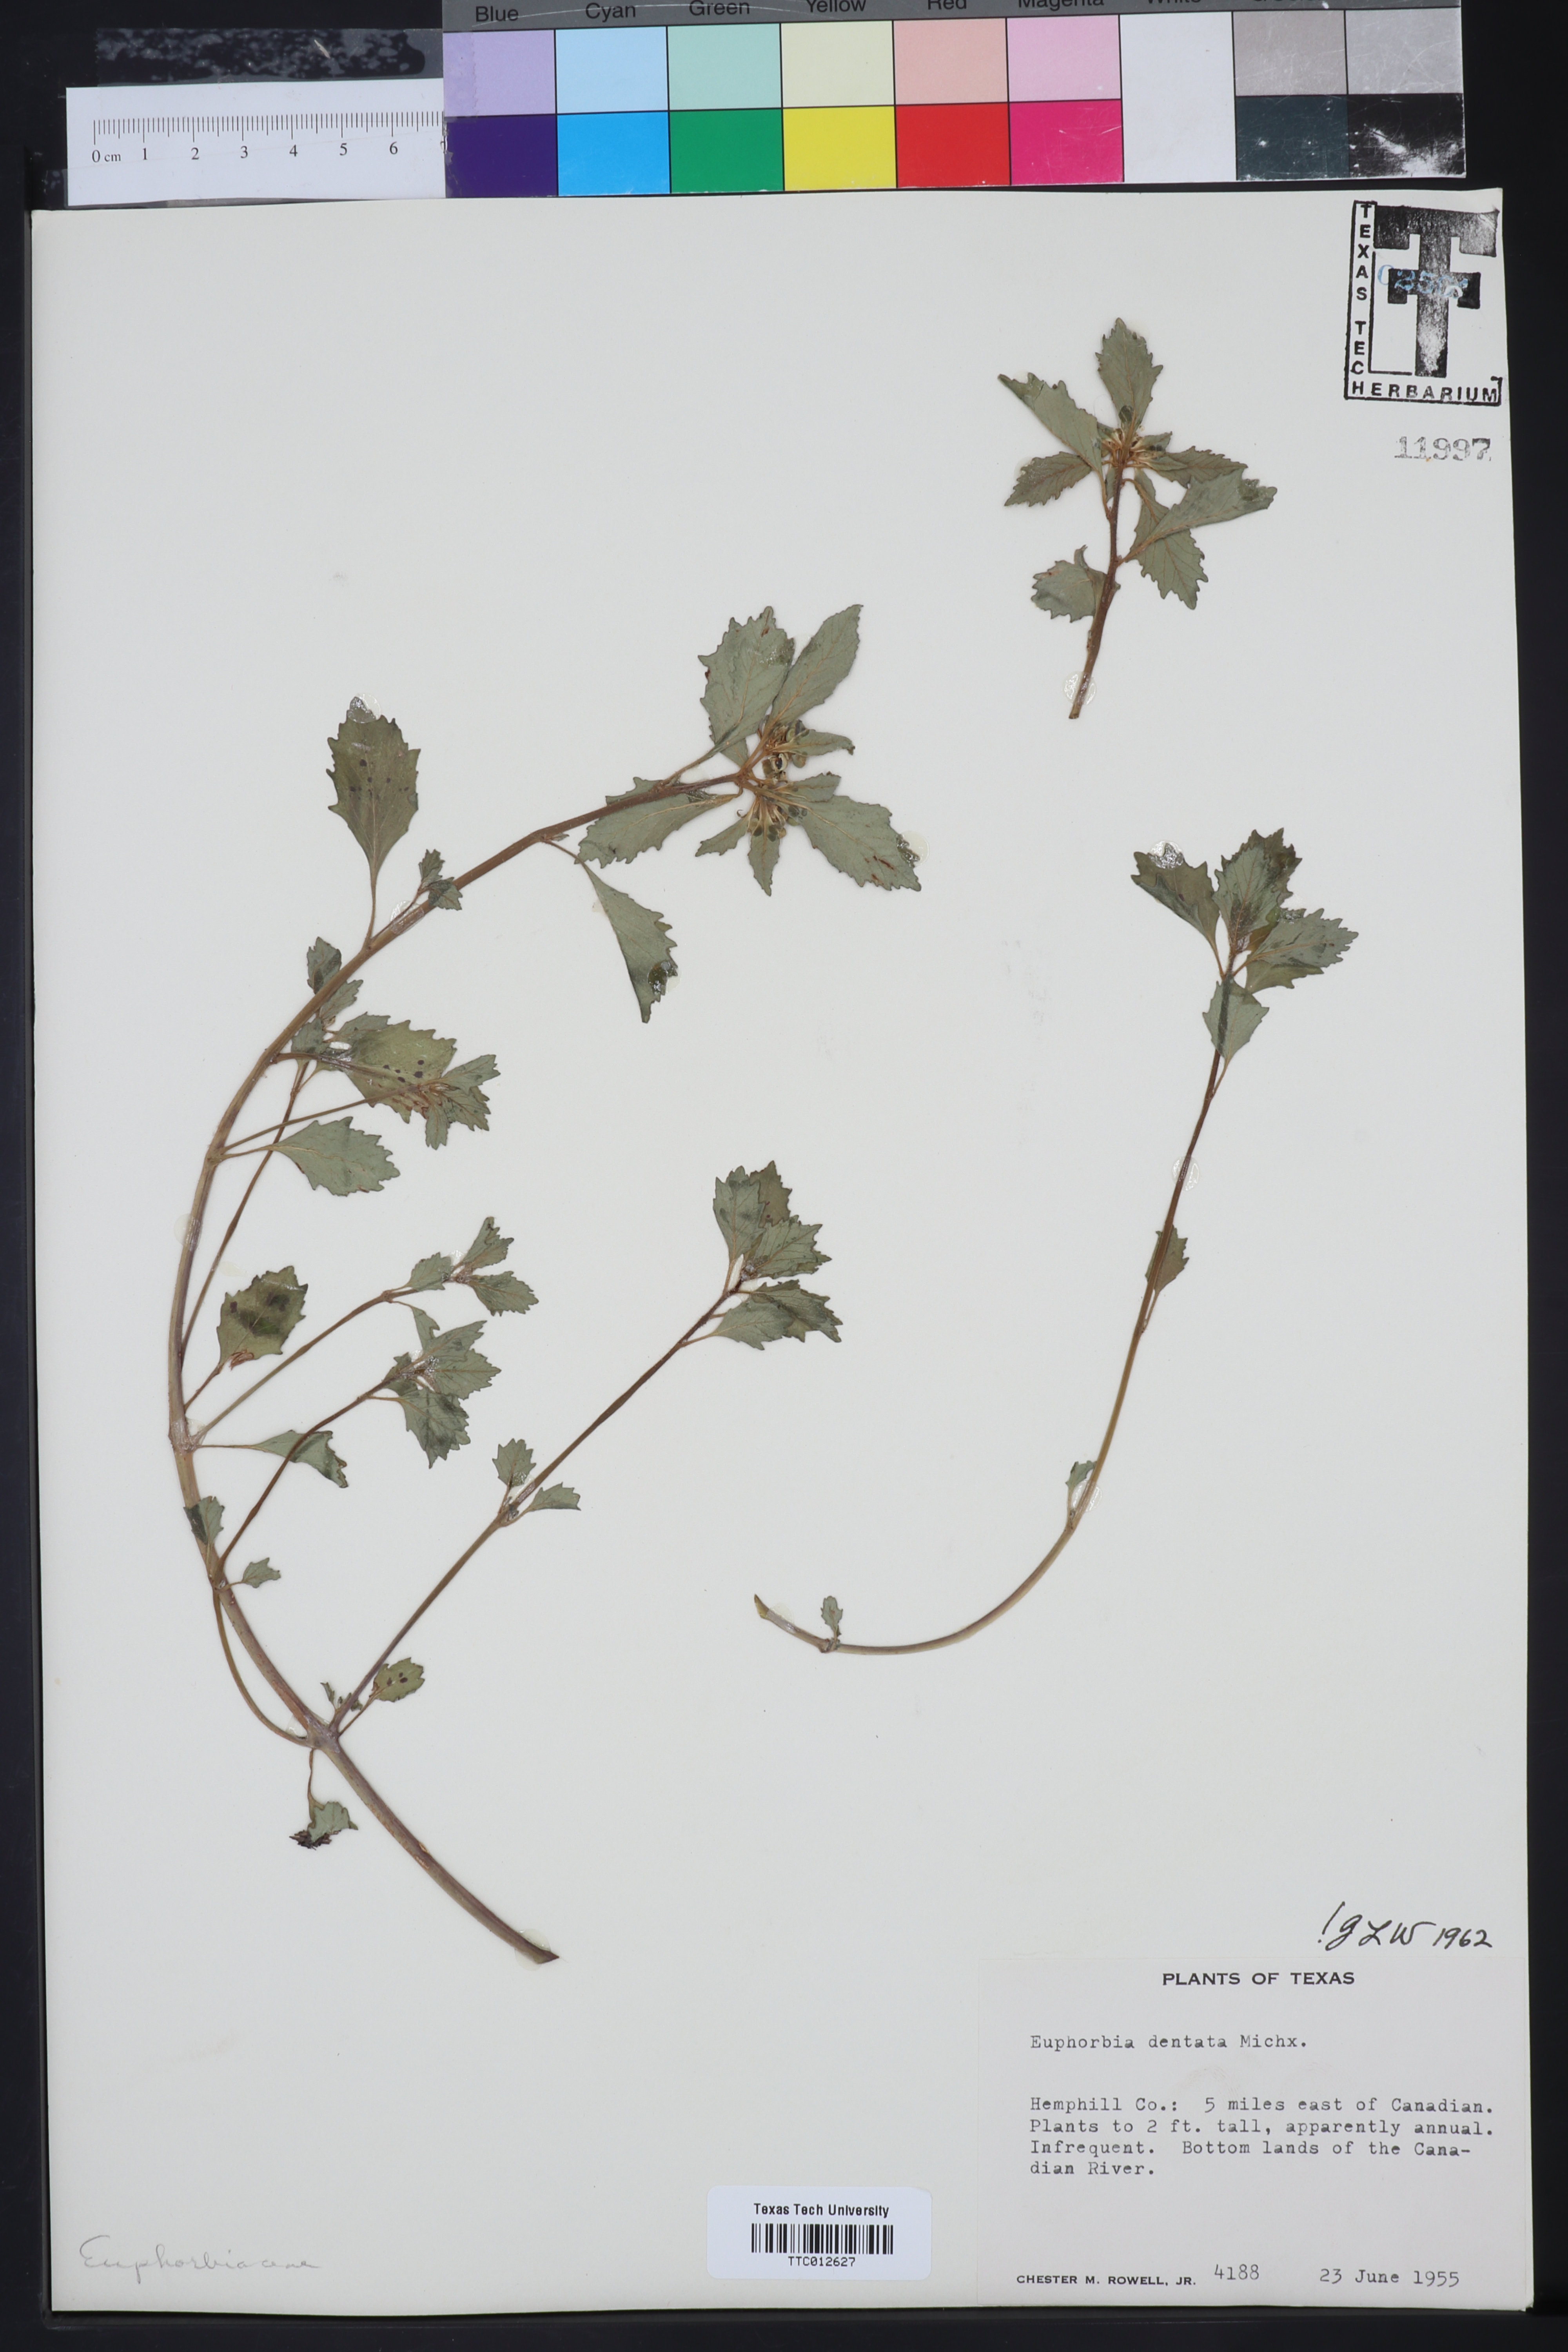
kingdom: Plantae
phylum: Tracheophyta
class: Magnoliopsida
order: Malpighiales
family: Euphorbiaceae
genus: Euphorbia
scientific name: Euphorbia dentata
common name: Dentate spurge
